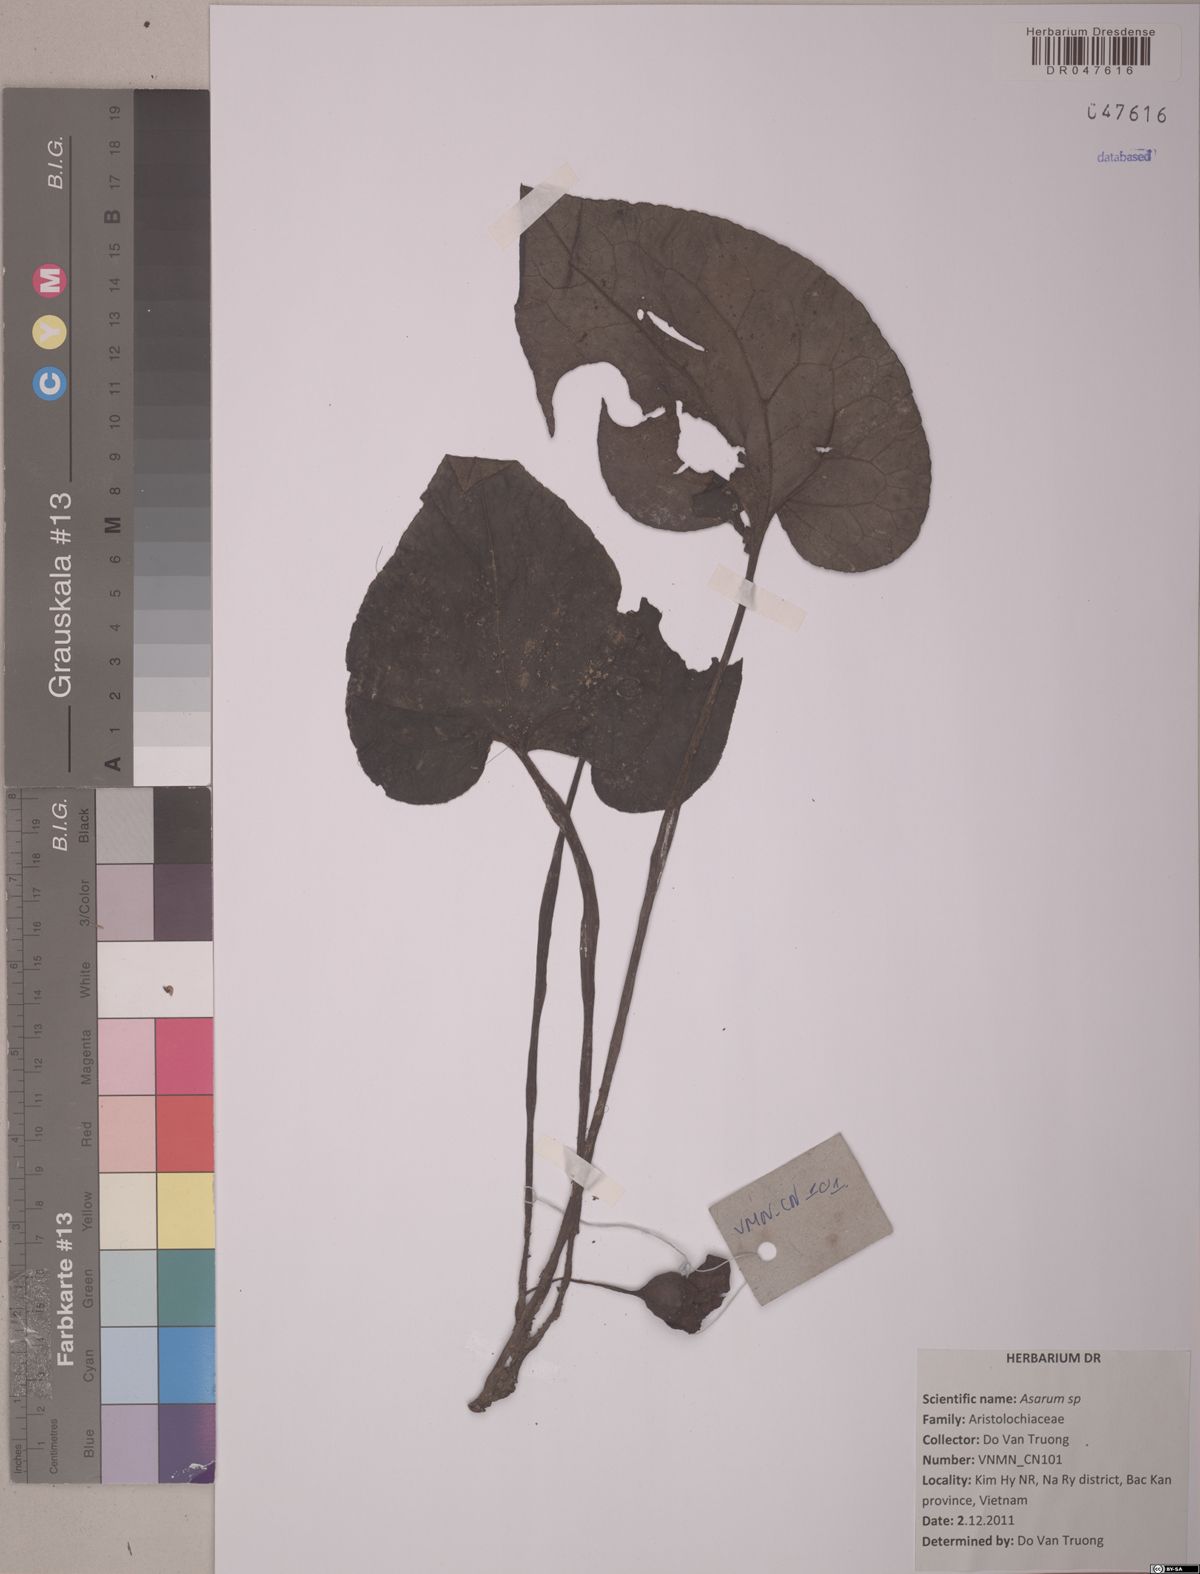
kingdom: Plantae
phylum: Tracheophyta
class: Magnoliopsida
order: Piperales
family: Aristolochiaceae
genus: Asarum
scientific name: Asarum
